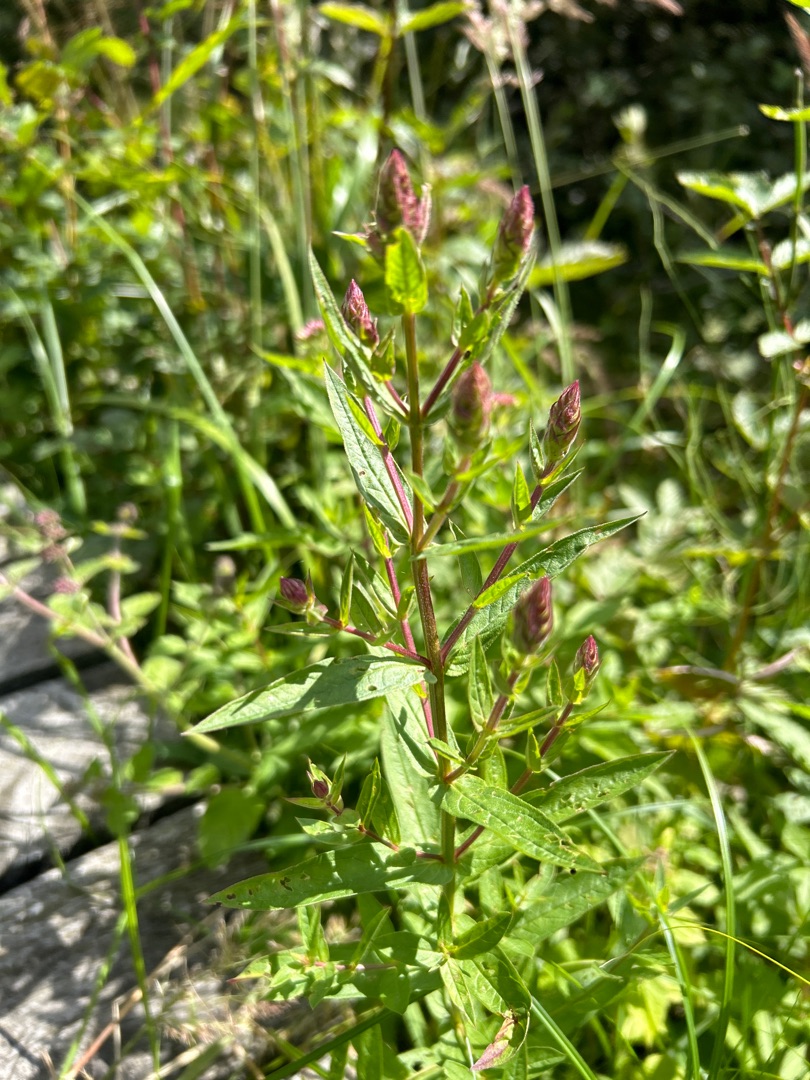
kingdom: Plantae
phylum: Tracheophyta
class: Magnoliopsida
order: Myrtales
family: Lythraceae
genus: Lythrum
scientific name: Lythrum salicaria
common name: Kattehale
